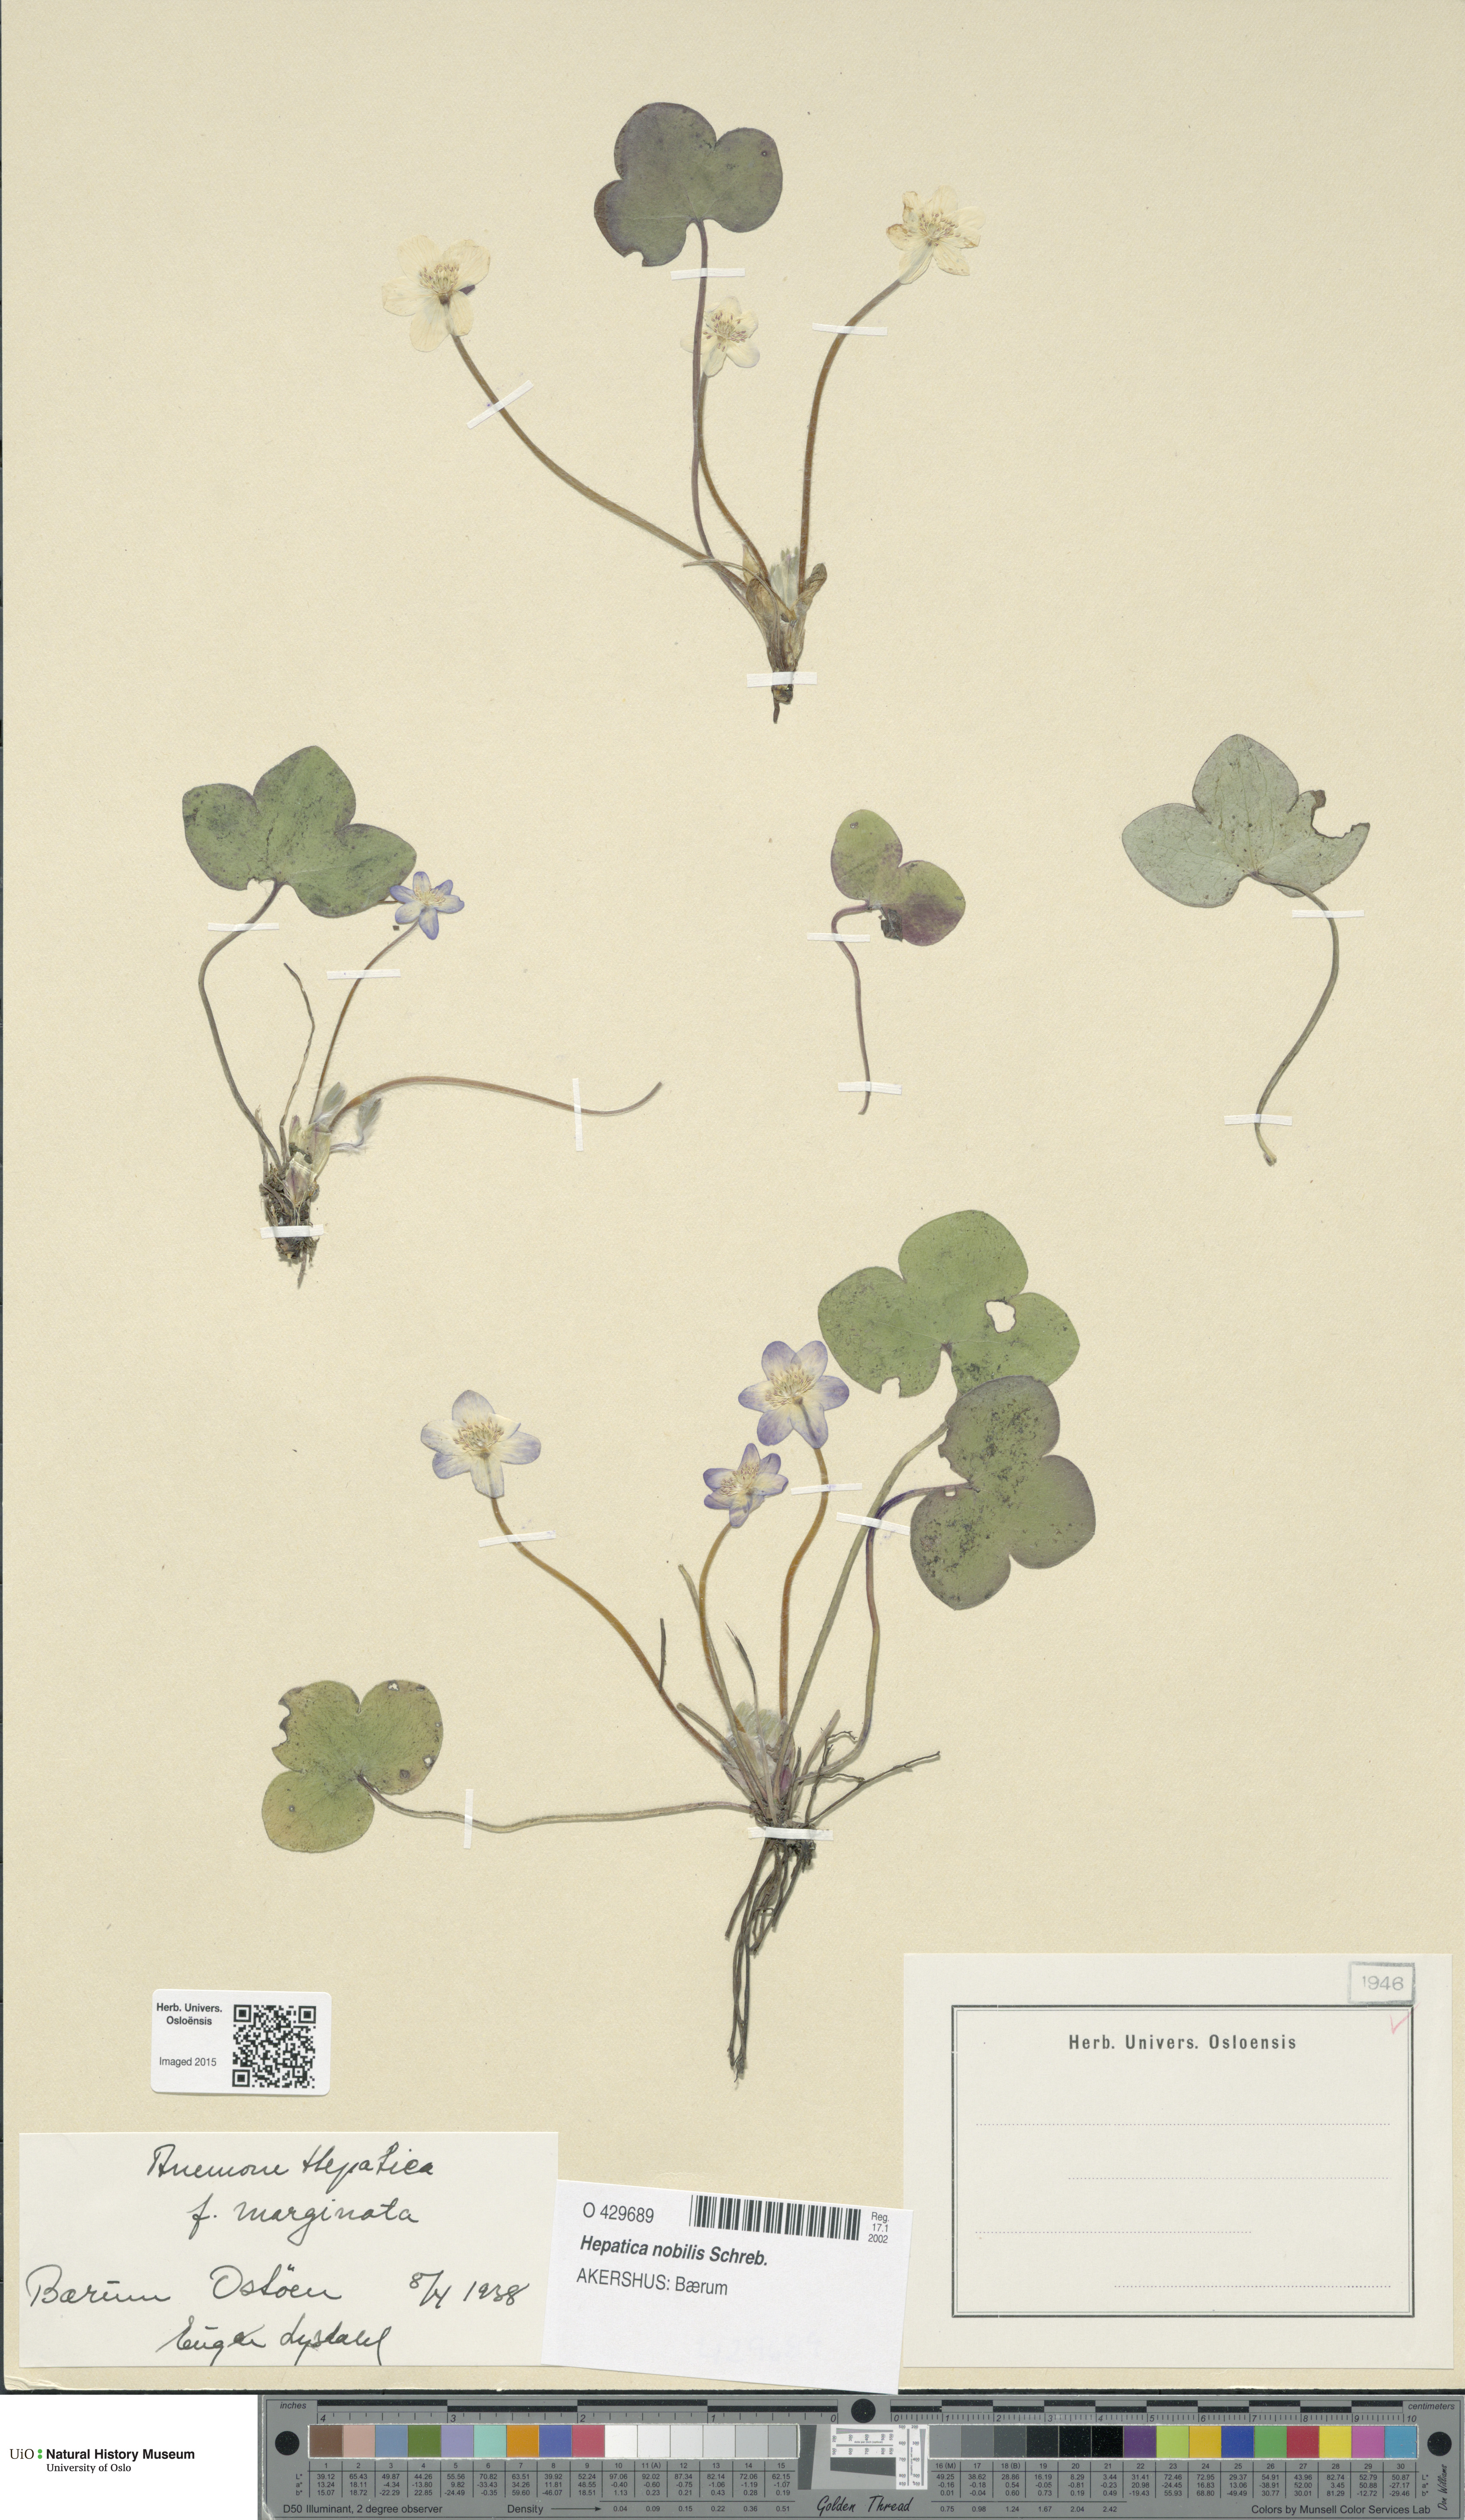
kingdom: Plantae
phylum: Tracheophyta
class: Magnoliopsida
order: Ranunculales
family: Ranunculaceae
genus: Hepatica
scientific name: Hepatica nobilis
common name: Liverleaf
